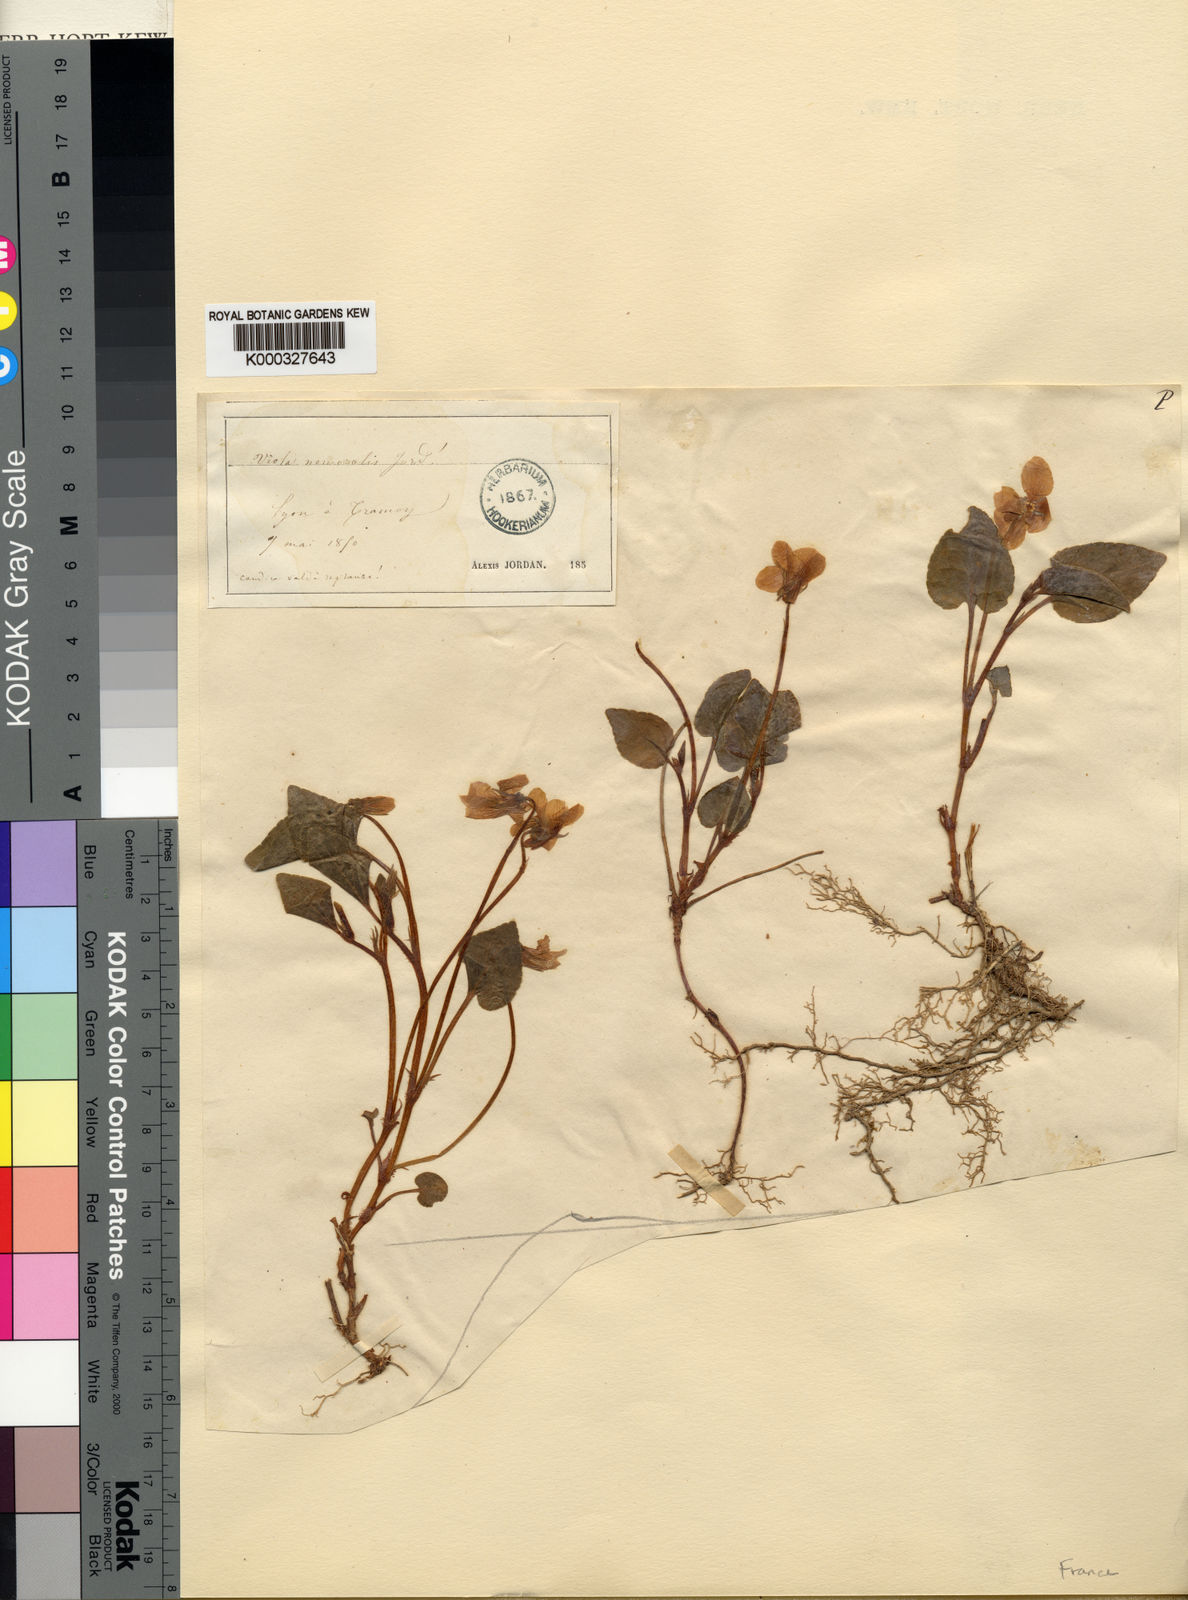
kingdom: Plantae
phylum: Tracheophyta
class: Magnoliopsida
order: Malpighiales
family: Violaceae
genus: Viola
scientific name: Viola canina
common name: Heath dog-violet
